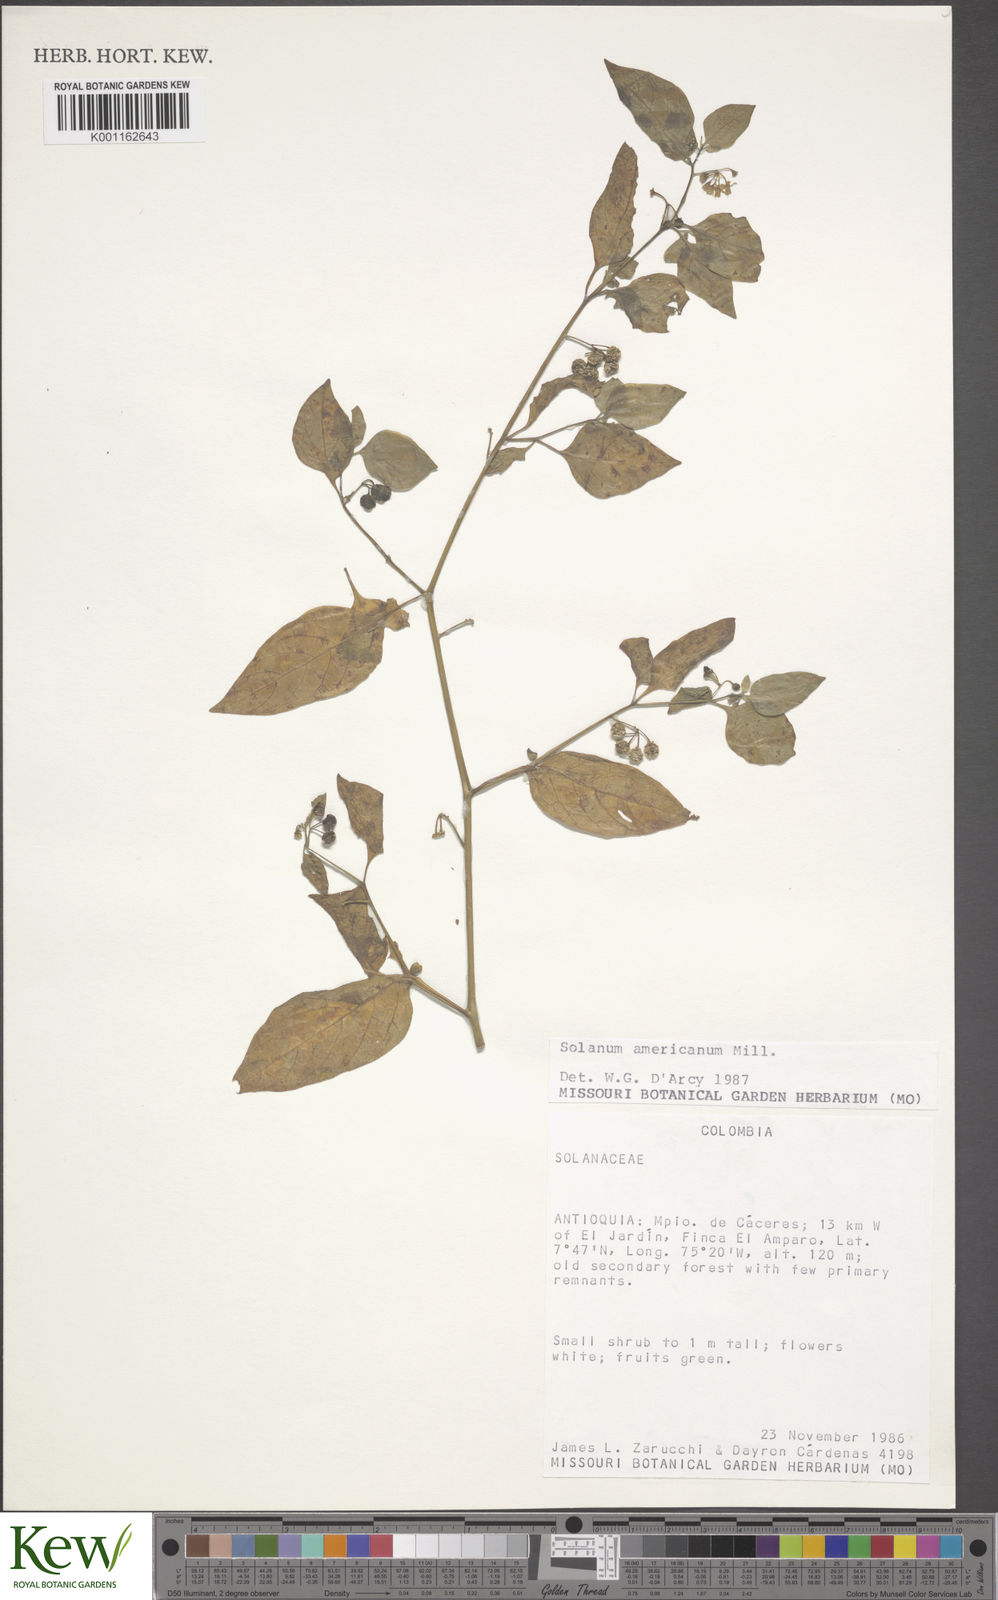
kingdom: Plantae
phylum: Tracheophyta
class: Magnoliopsida
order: Solanales
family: Solanaceae
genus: Solanum
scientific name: Solanum americanum
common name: American black nightshade
